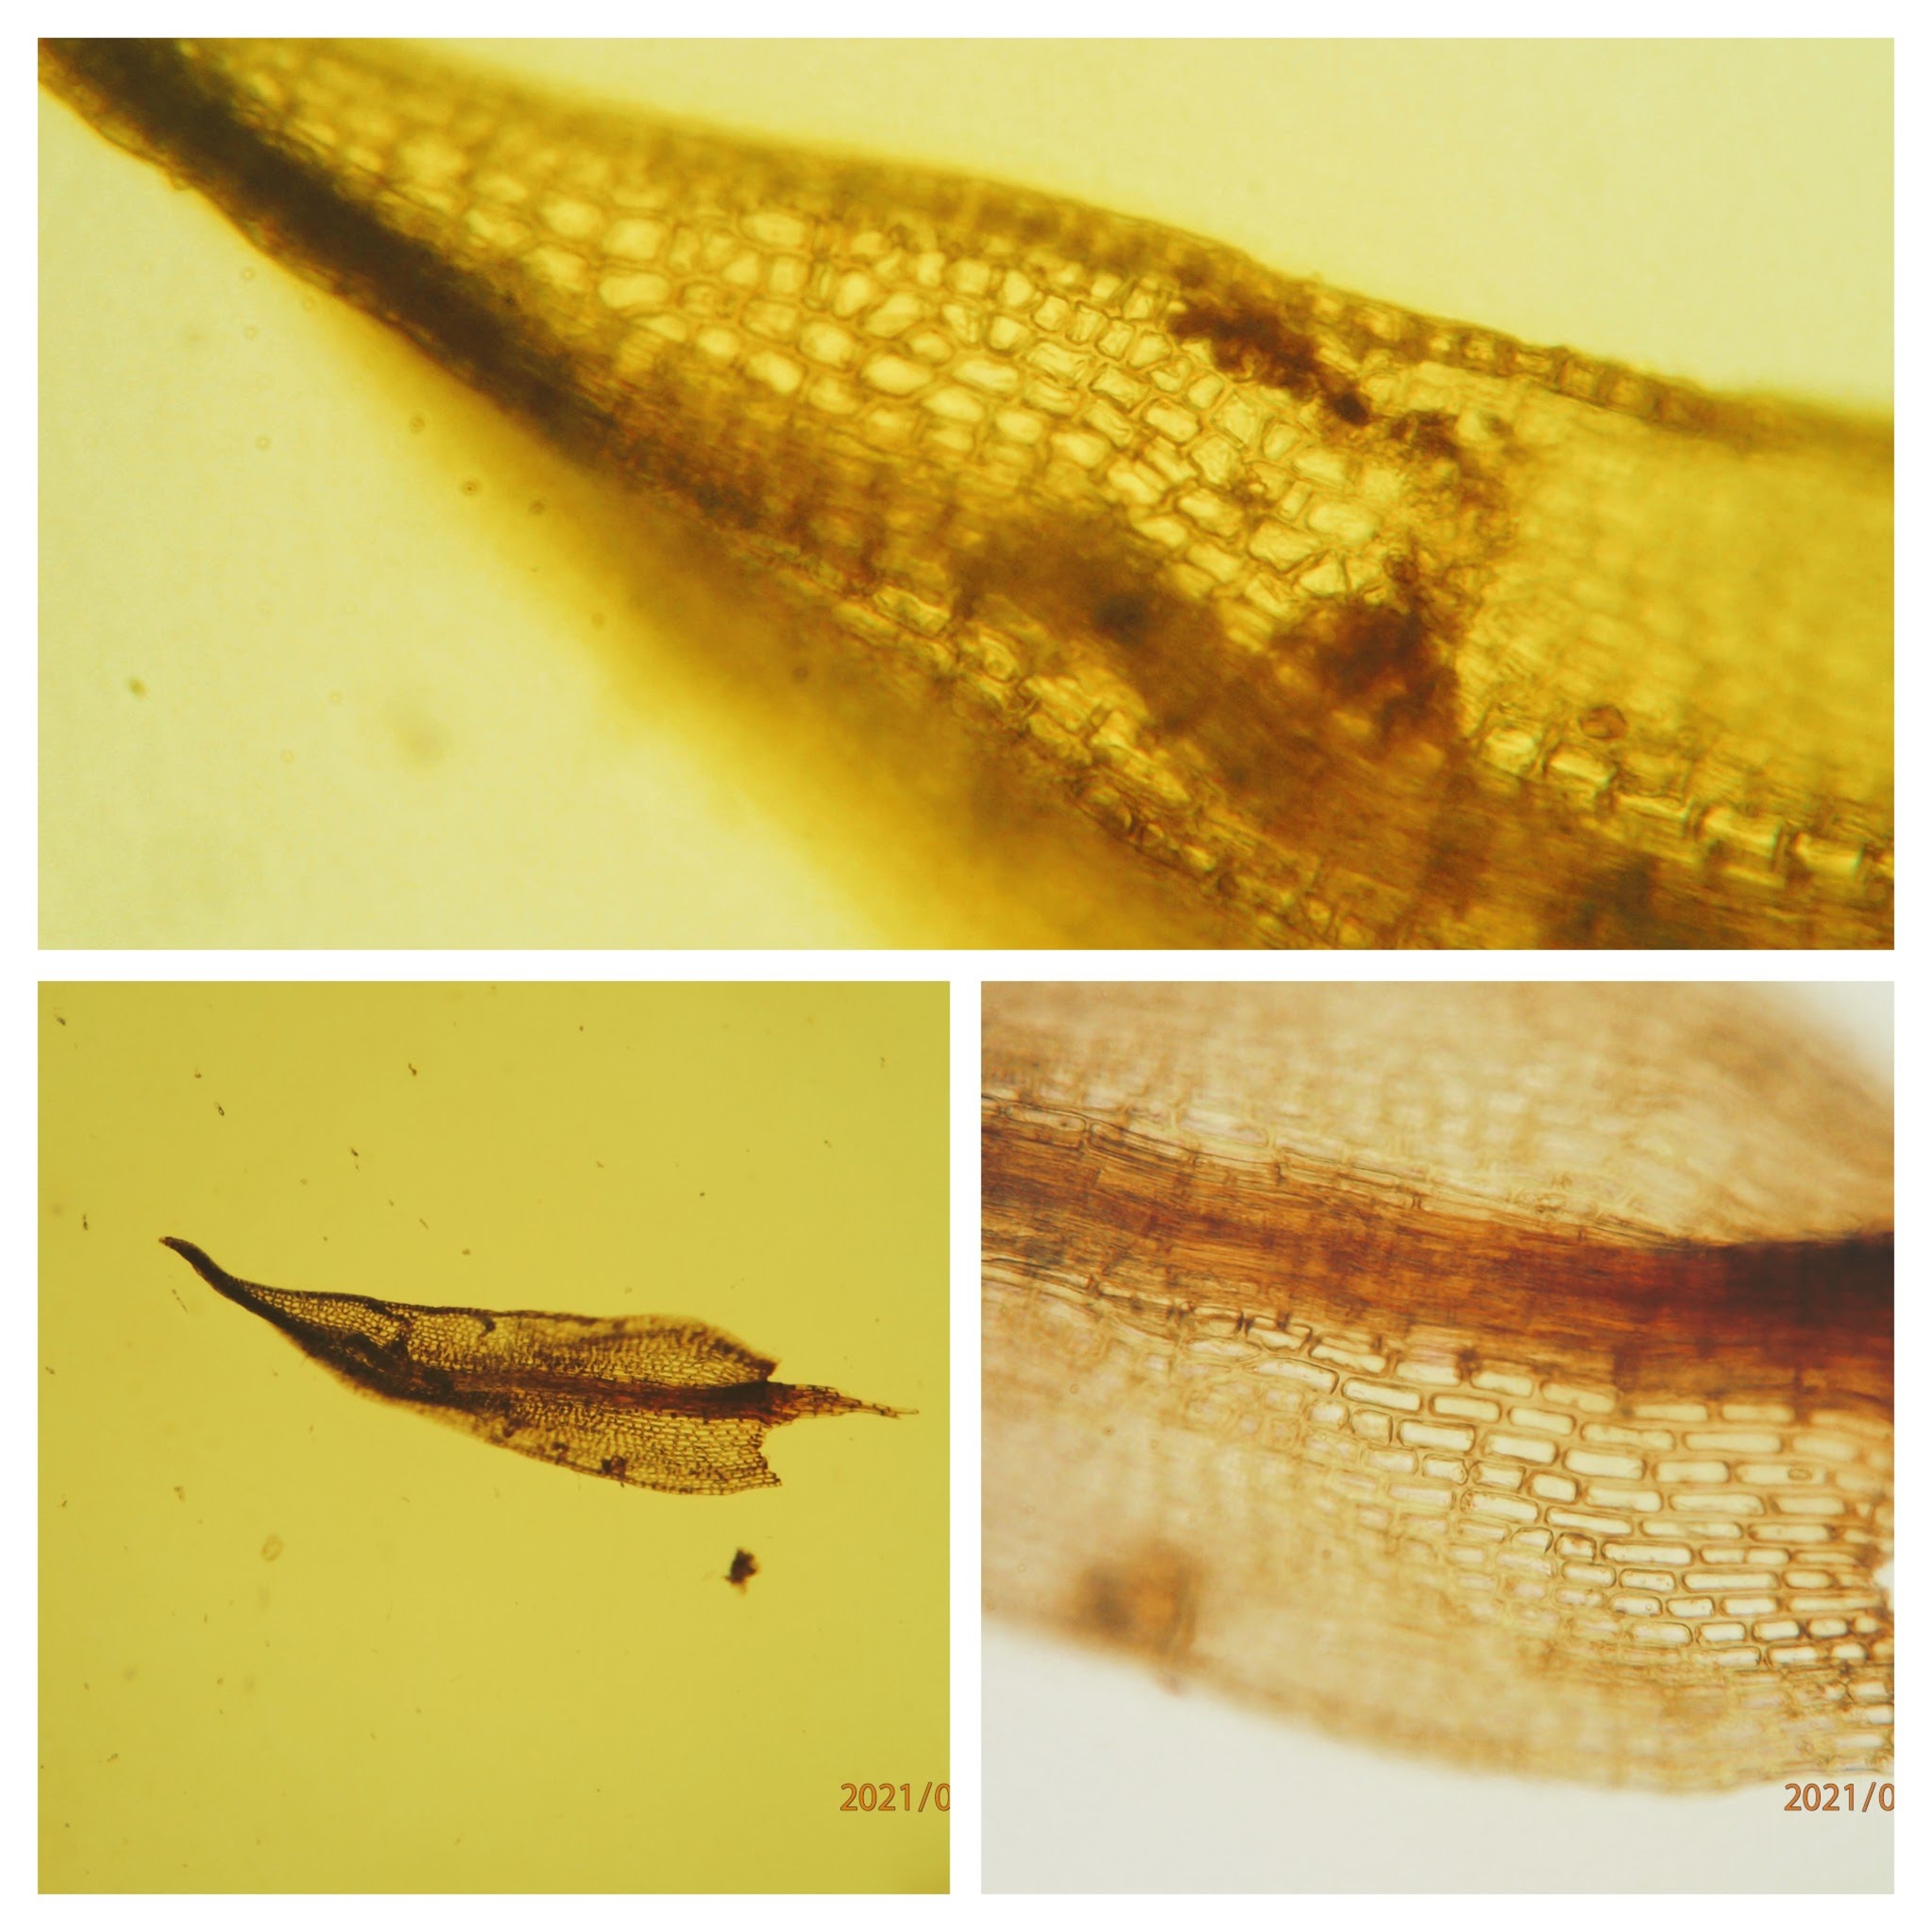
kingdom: Plantae
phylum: Bryophyta
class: Bryopsida
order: Dicranales
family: Ditrichaceae
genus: Ceratodon
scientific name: Ceratodon purpureus
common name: Rød horntand
